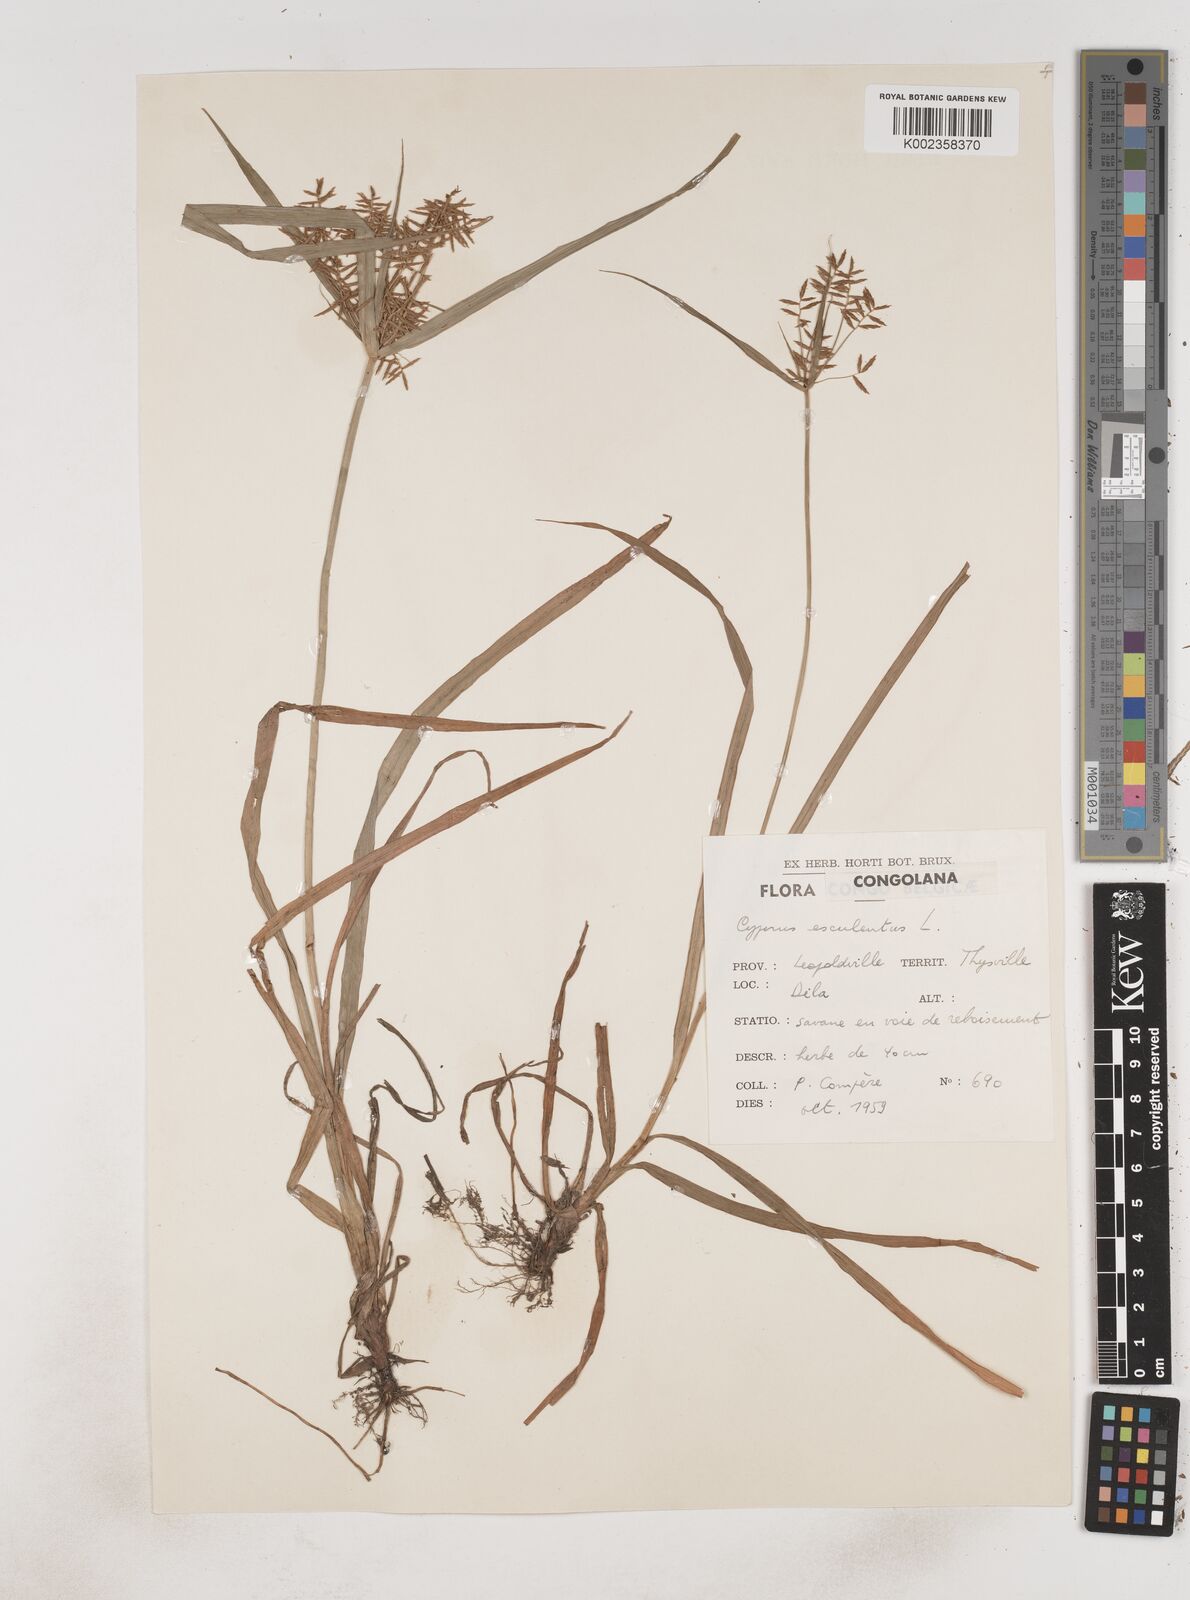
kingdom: Plantae
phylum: Tracheophyta
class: Liliopsida
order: Poales
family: Cyperaceae
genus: Cyperus
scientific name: Cyperus esculentus
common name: Yellow nutsedge
